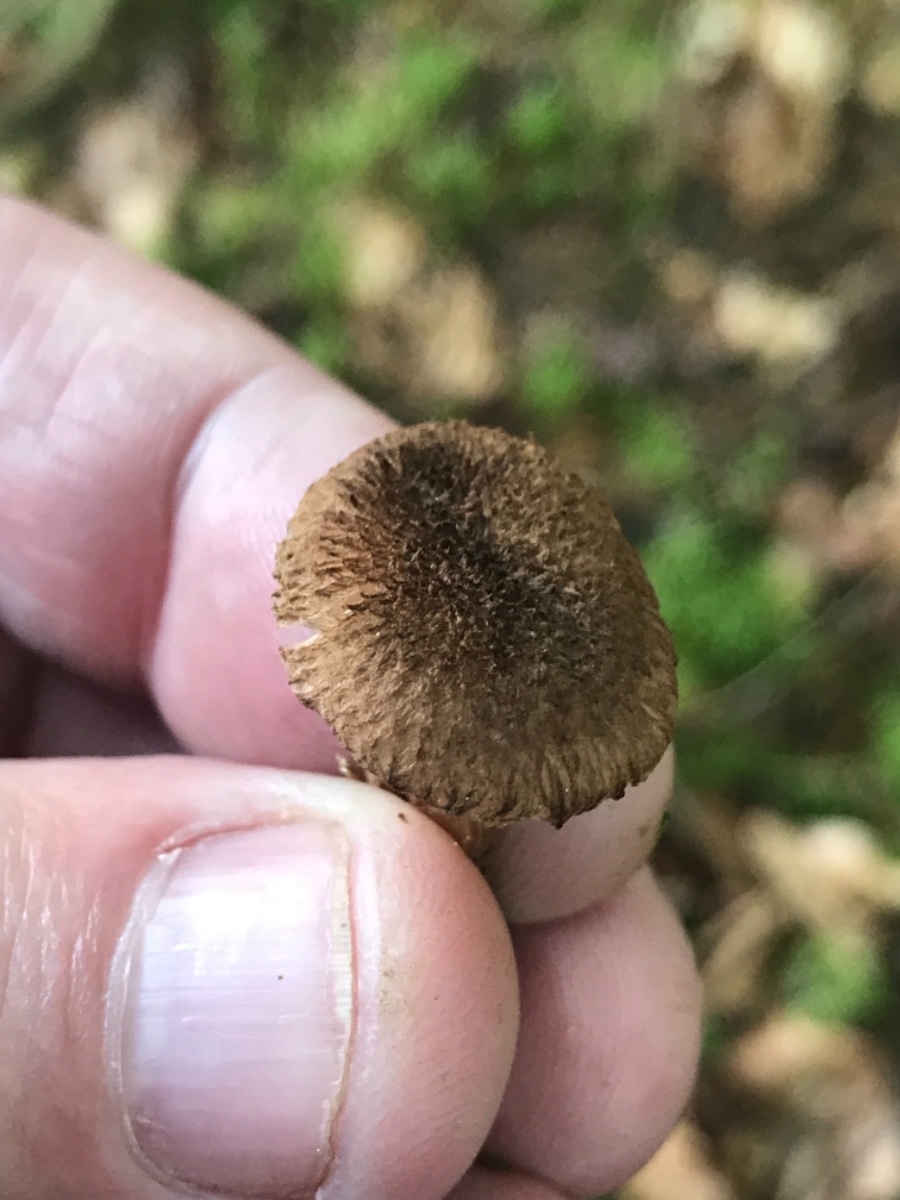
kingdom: Fungi
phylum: Basidiomycota
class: Agaricomycetes
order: Agaricales
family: Inocybaceae
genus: Inocybe
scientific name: Inocybe
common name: trævlhat
